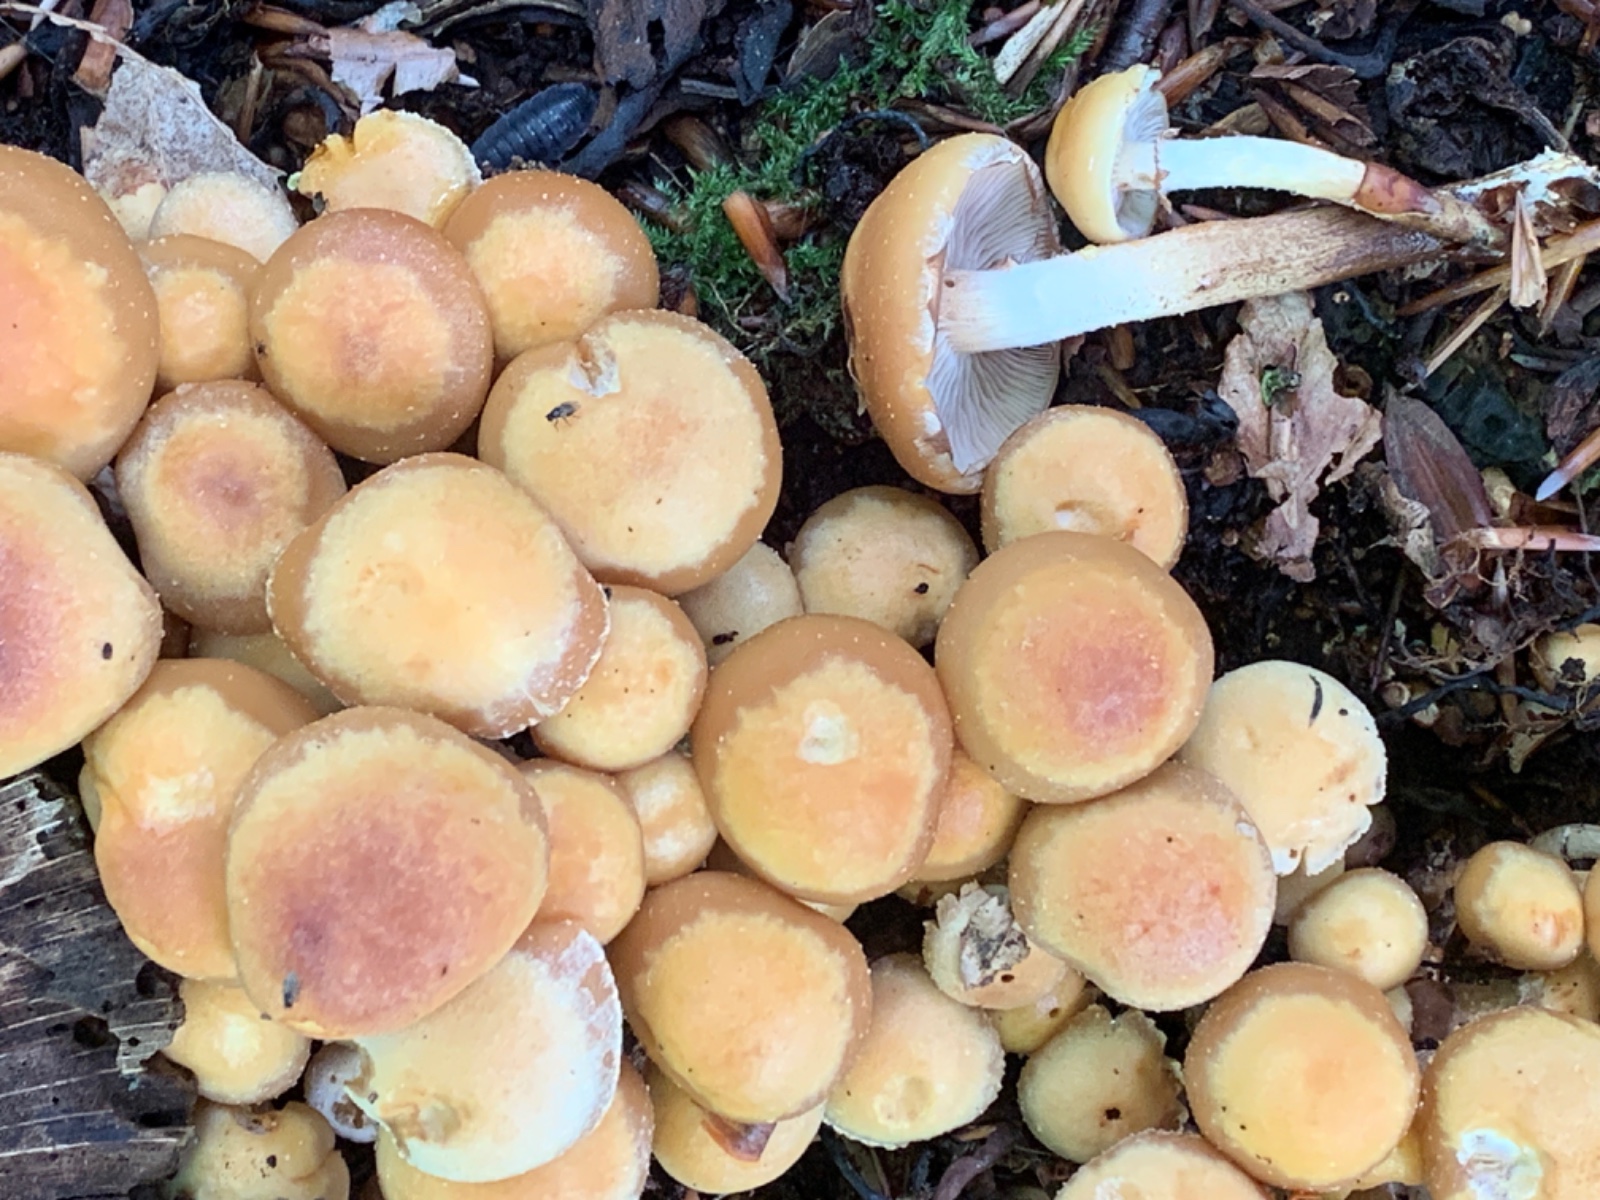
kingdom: Fungi
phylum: Basidiomycota
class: Agaricomycetes
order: Agaricales
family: Strophariaceae
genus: Kuehneromyces
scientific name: Kuehneromyces mutabilis
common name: foranderlig skælhat
